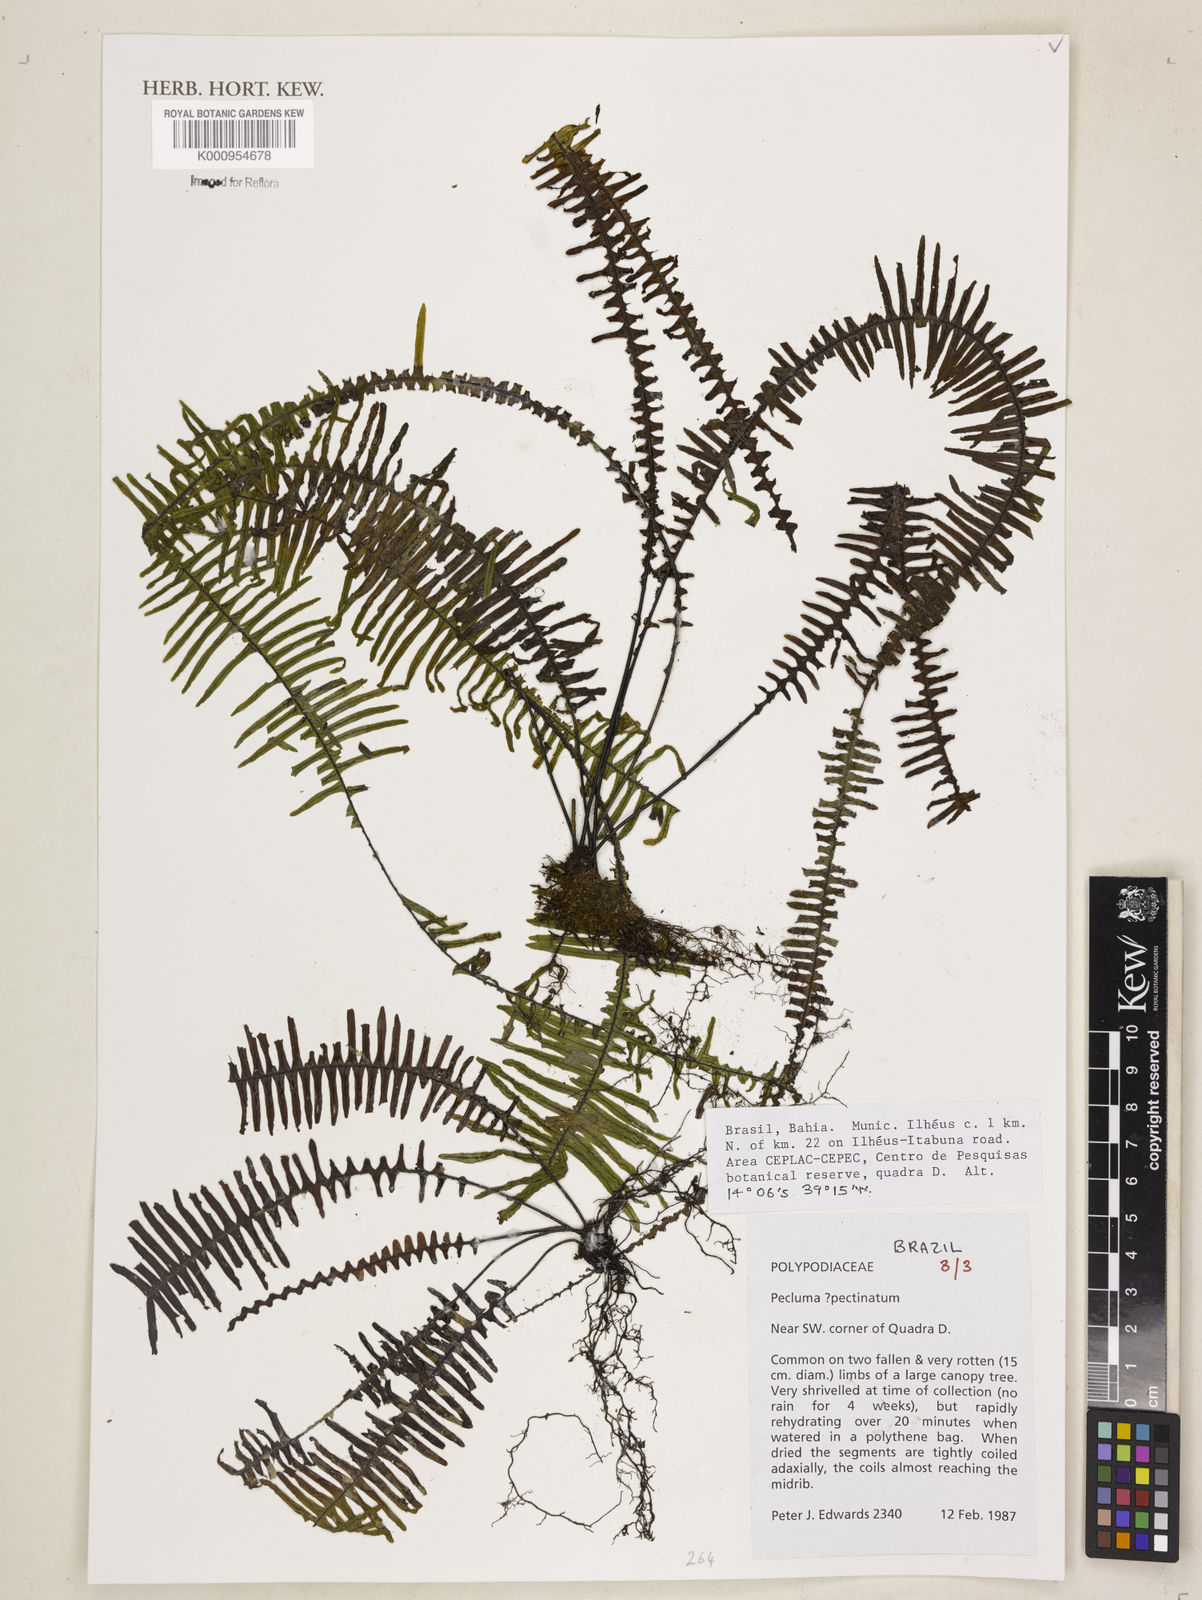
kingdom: Plantae
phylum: Tracheophyta
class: Polypodiopsida
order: Polypodiales
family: Polypodiaceae
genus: Pecluma
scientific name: Pecluma pectinata
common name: Msasa fern
